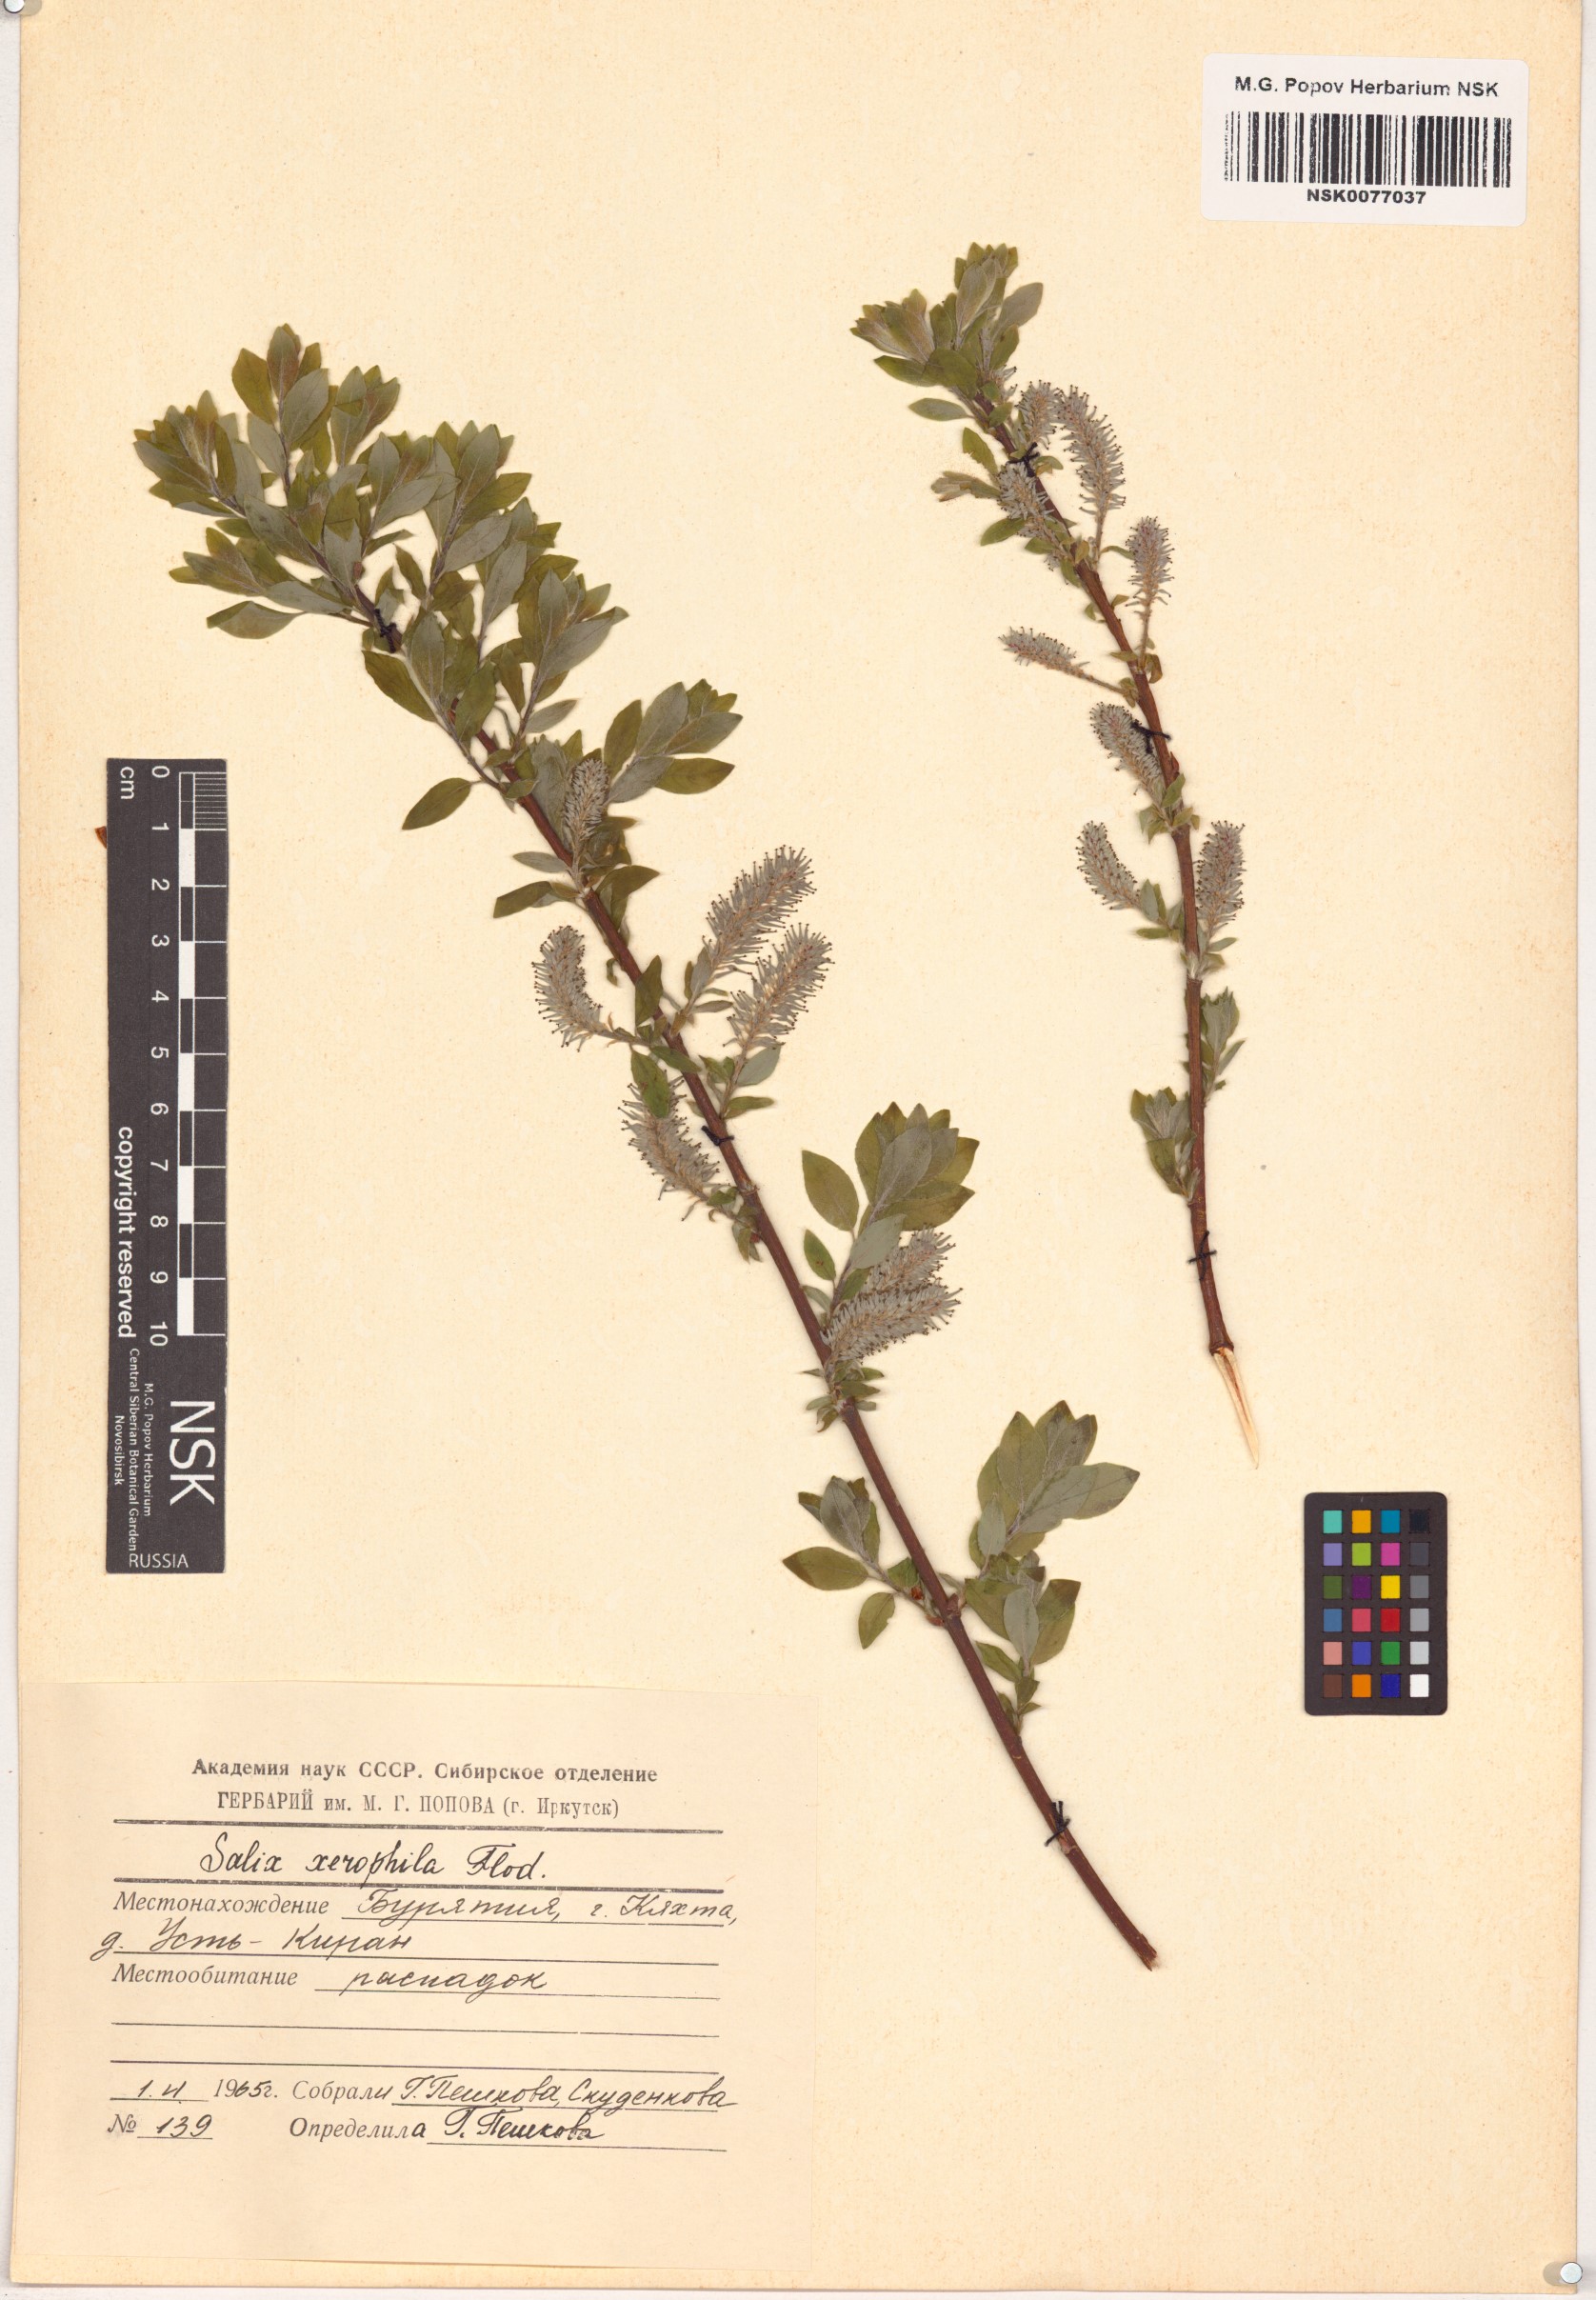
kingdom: Plantae
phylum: Tracheophyta
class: Magnoliopsida
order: Malpighiales
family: Salicaceae
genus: Salix
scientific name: Salix bebbiana
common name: Bebb's willow
